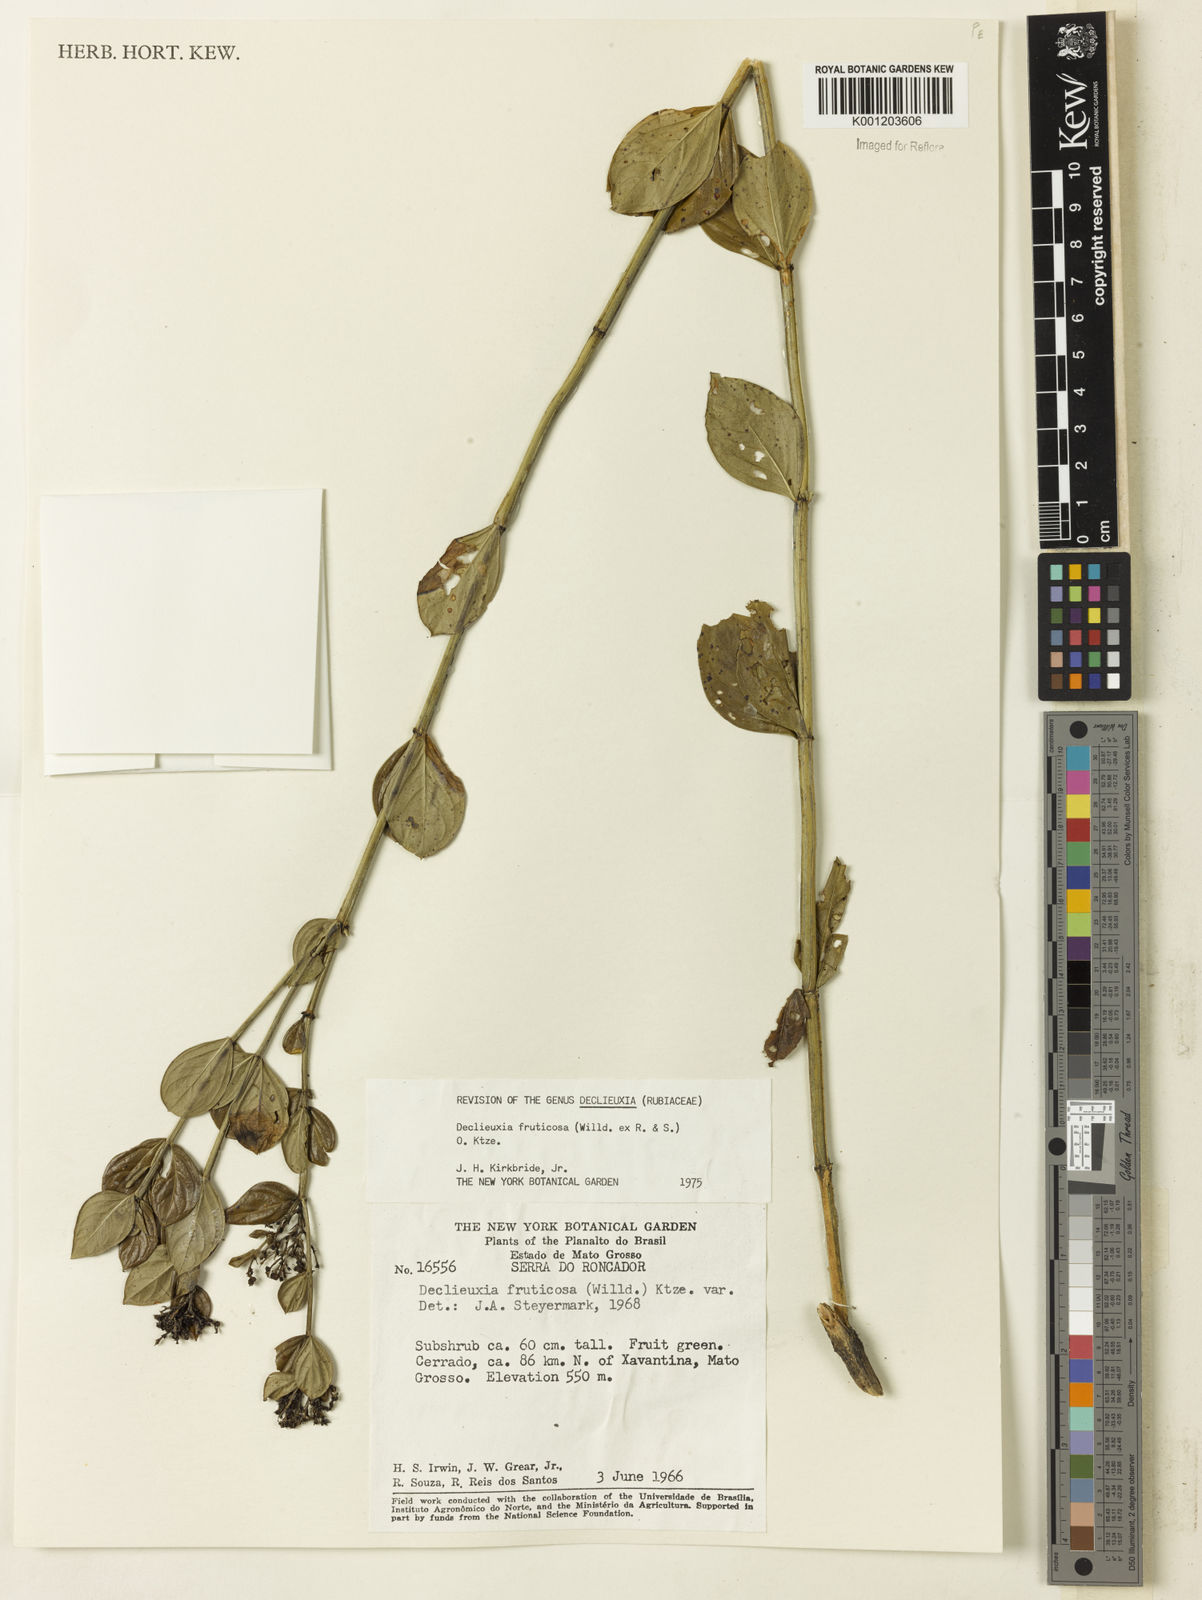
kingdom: Plantae
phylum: Tracheophyta
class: Magnoliopsida
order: Gentianales
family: Rubiaceae
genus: Declieuxia
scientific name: Declieuxia fruticosa
